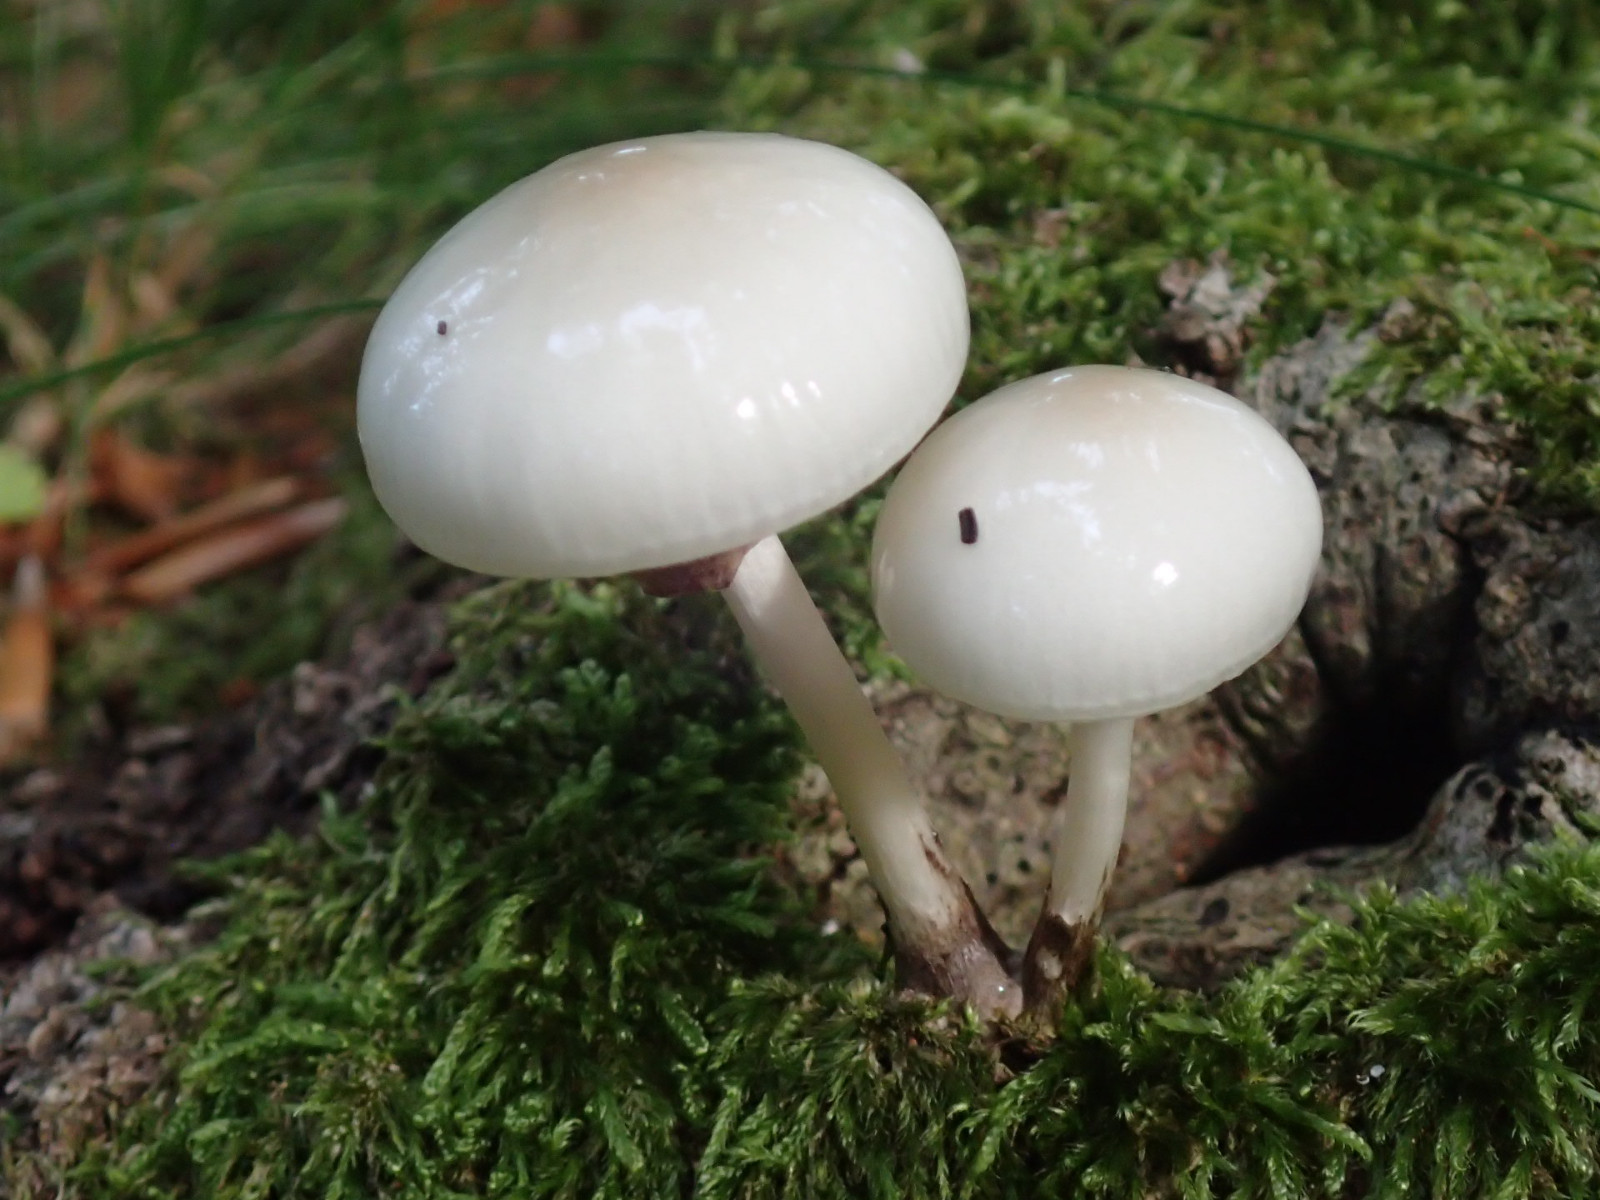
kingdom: Fungi
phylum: Basidiomycota
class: Agaricomycetes
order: Agaricales
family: Physalacriaceae
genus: Mucidula
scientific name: Mucidula mucida
